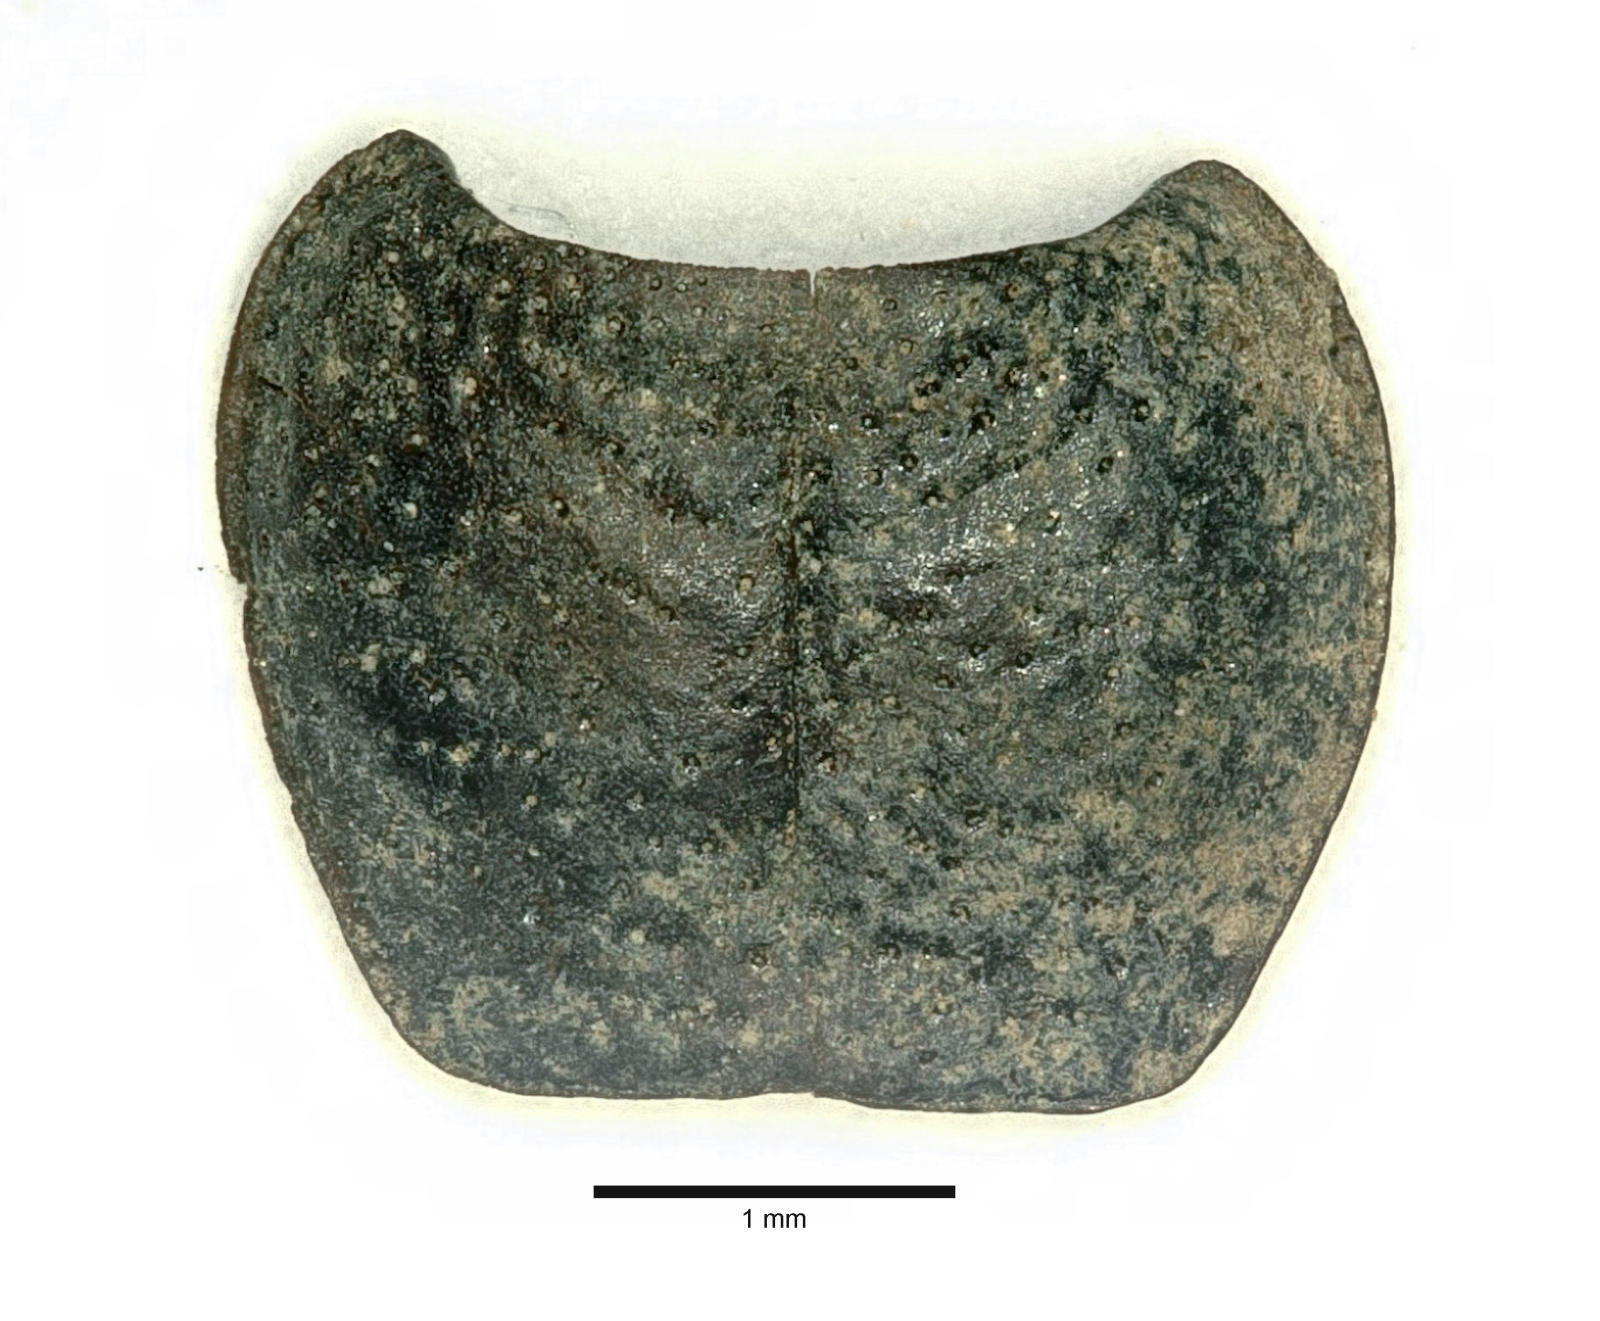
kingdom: Animalia
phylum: Arthropoda
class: Insecta
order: Coleoptera
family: Carabidae
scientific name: Carabidae
